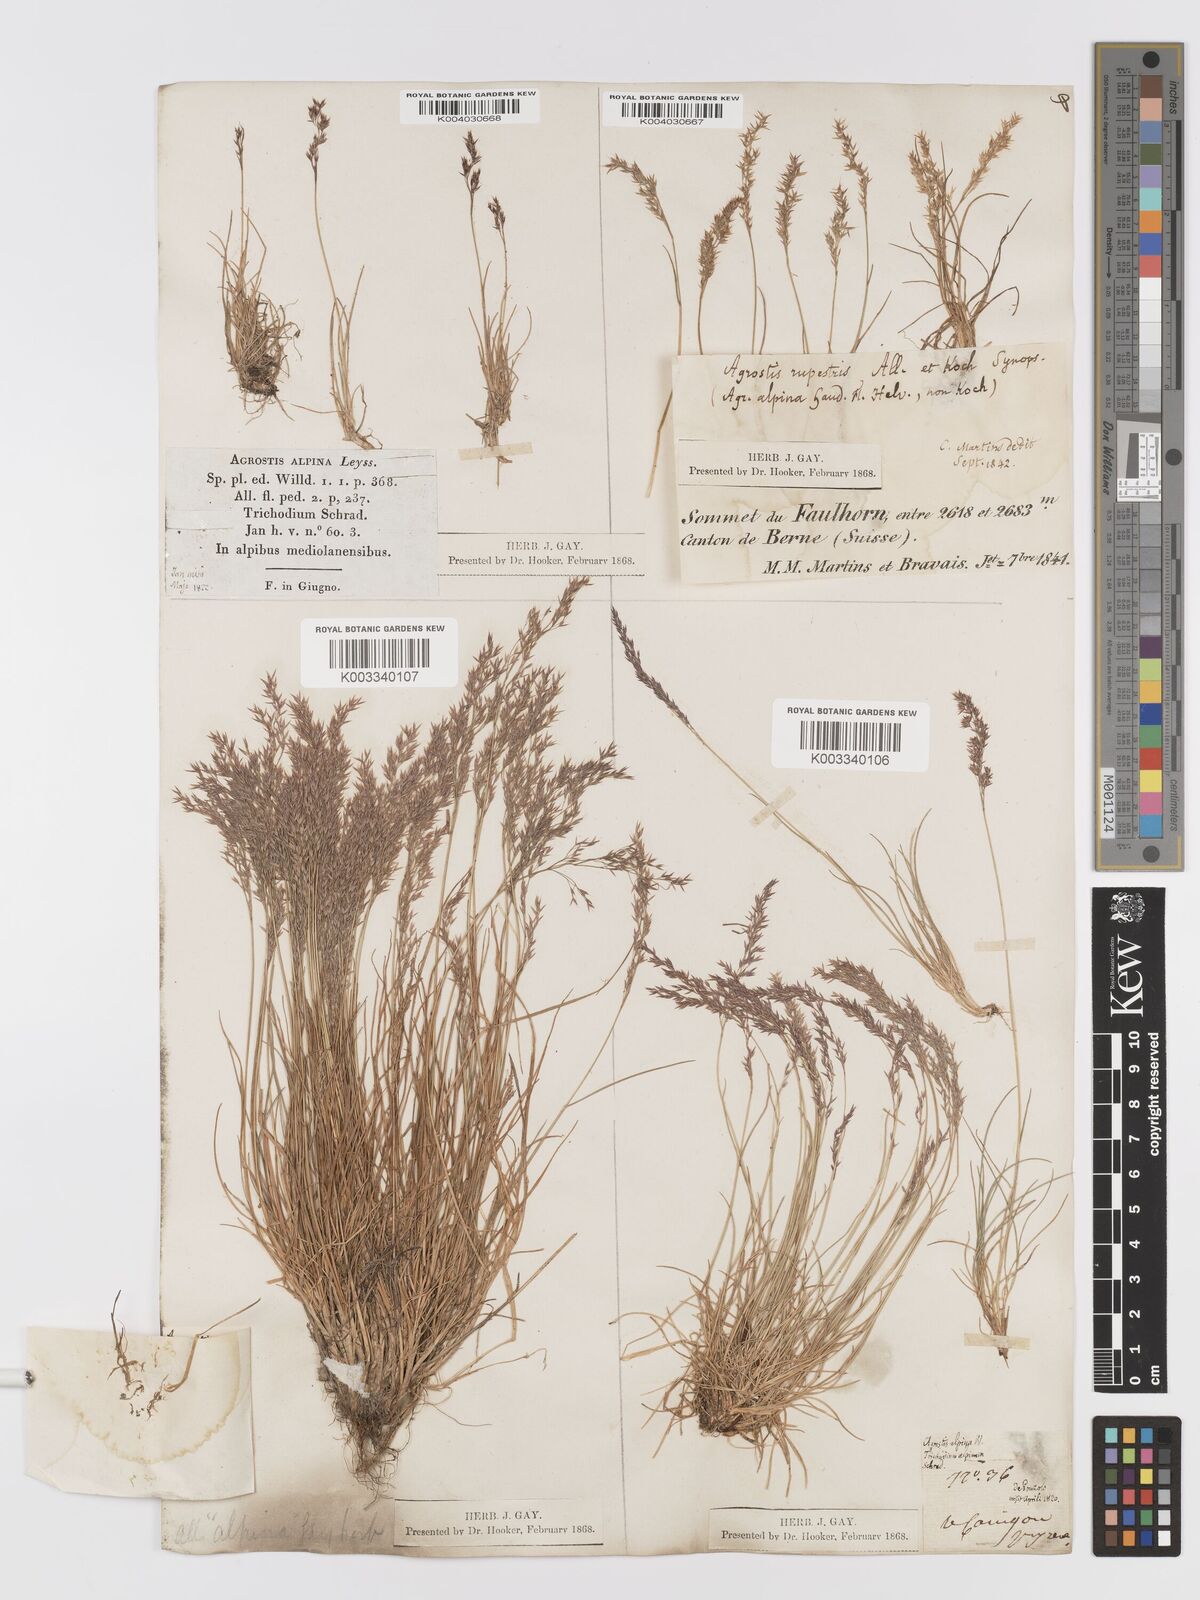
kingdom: Plantae
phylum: Tracheophyta
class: Liliopsida
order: Poales
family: Poaceae
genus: Agrostis
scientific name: Agrostis rupestris
